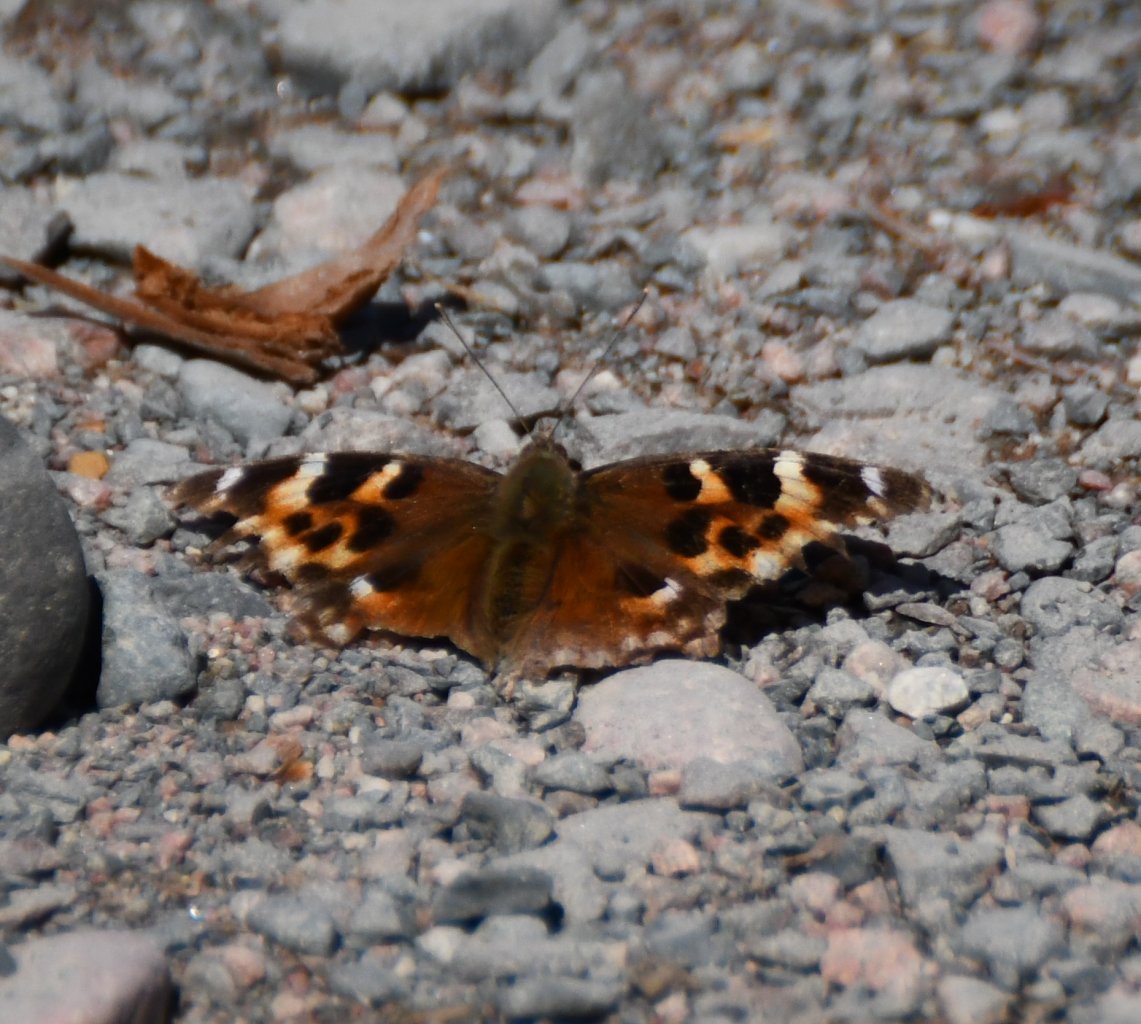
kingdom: Animalia
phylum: Arthropoda
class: Insecta
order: Lepidoptera
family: Nymphalidae
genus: Polygonia
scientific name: Polygonia vaualbum
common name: Compton Tortoiseshell
